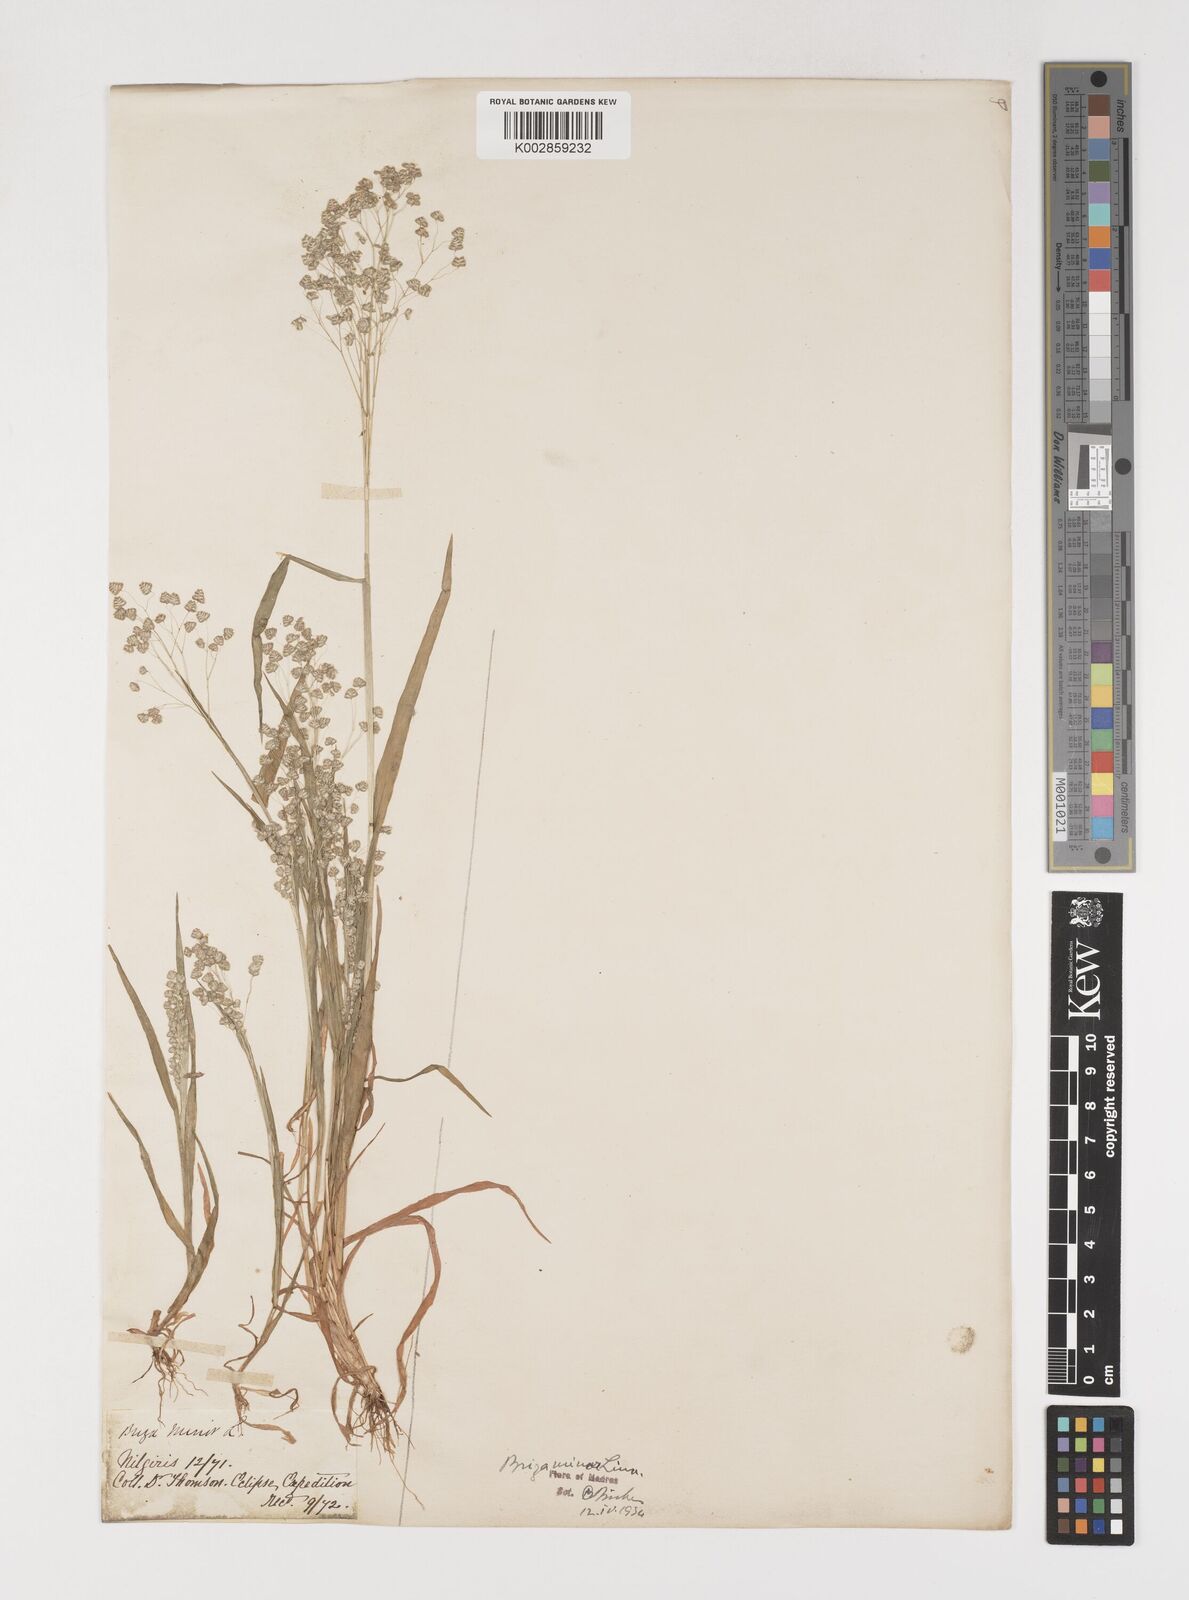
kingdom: Plantae
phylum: Tracheophyta
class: Liliopsida
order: Poales
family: Poaceae
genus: Briza
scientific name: Briza minor
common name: Lesser quaking-grass
